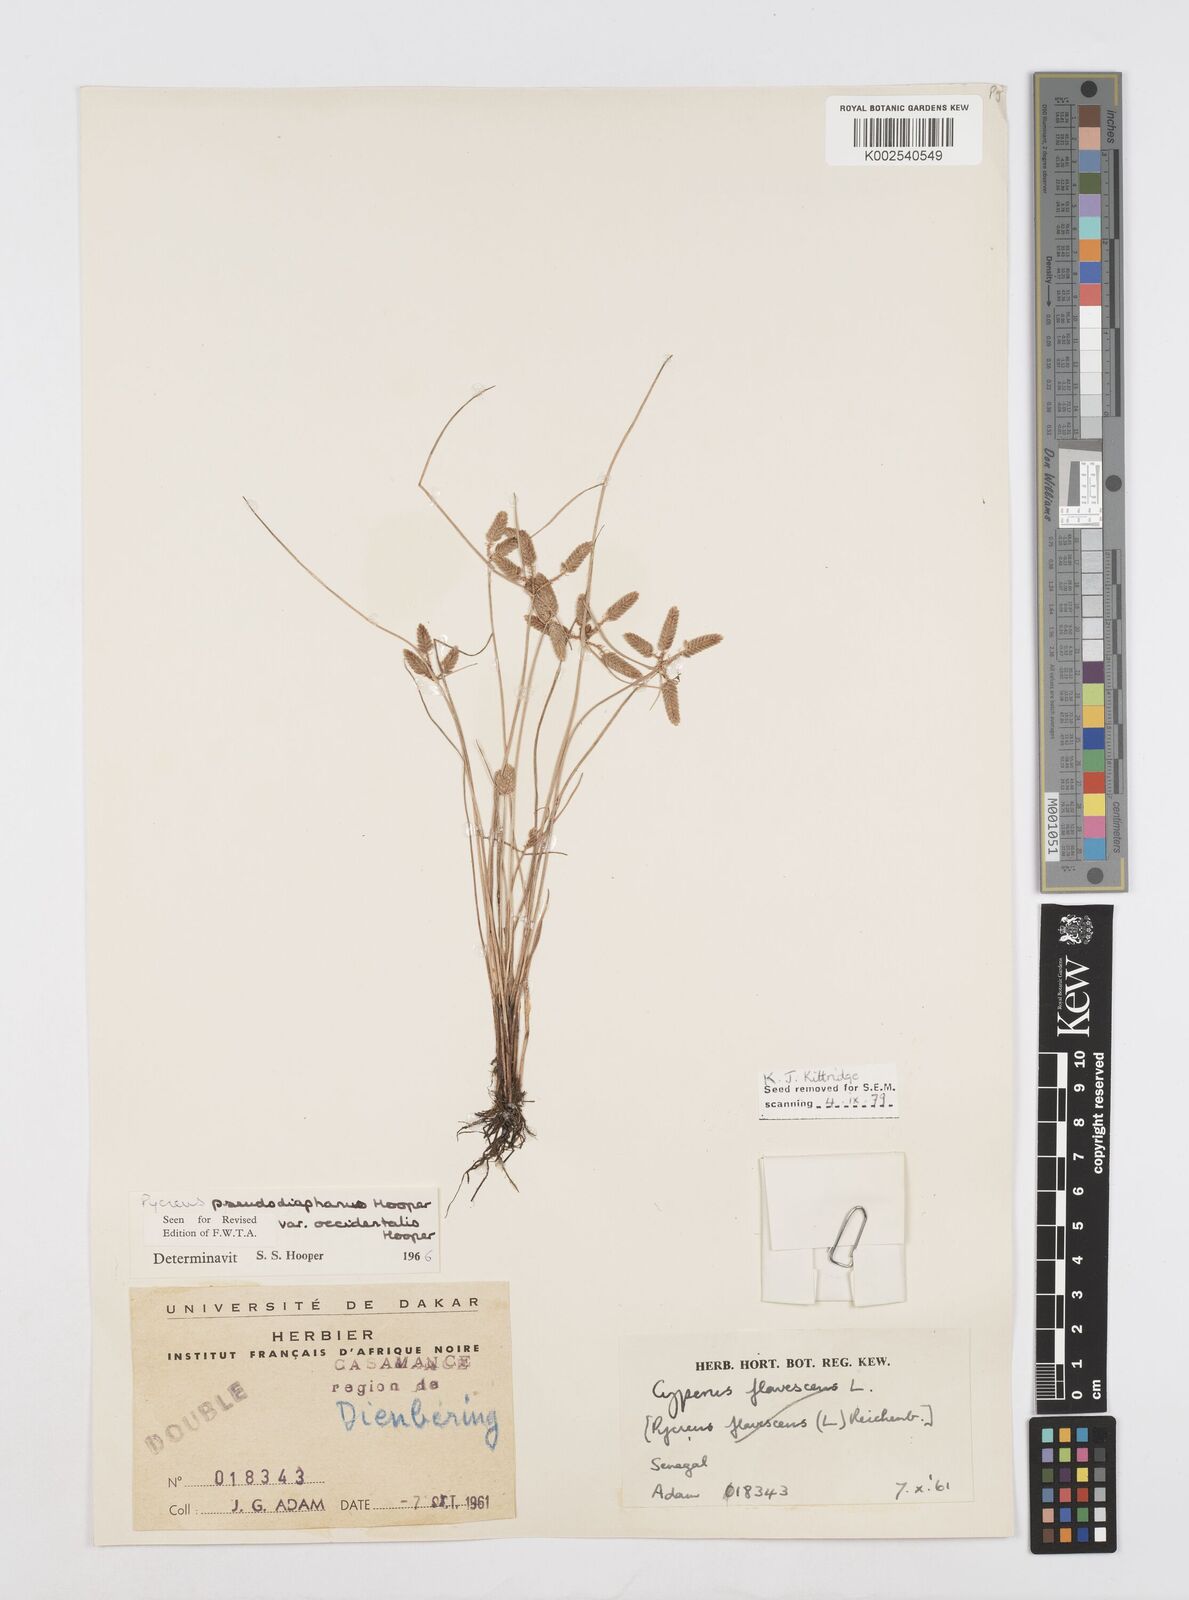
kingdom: Plantae
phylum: Tracheophyta
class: Liliopsida
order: Poales
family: Cyperaceae
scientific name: Cyperaceae
